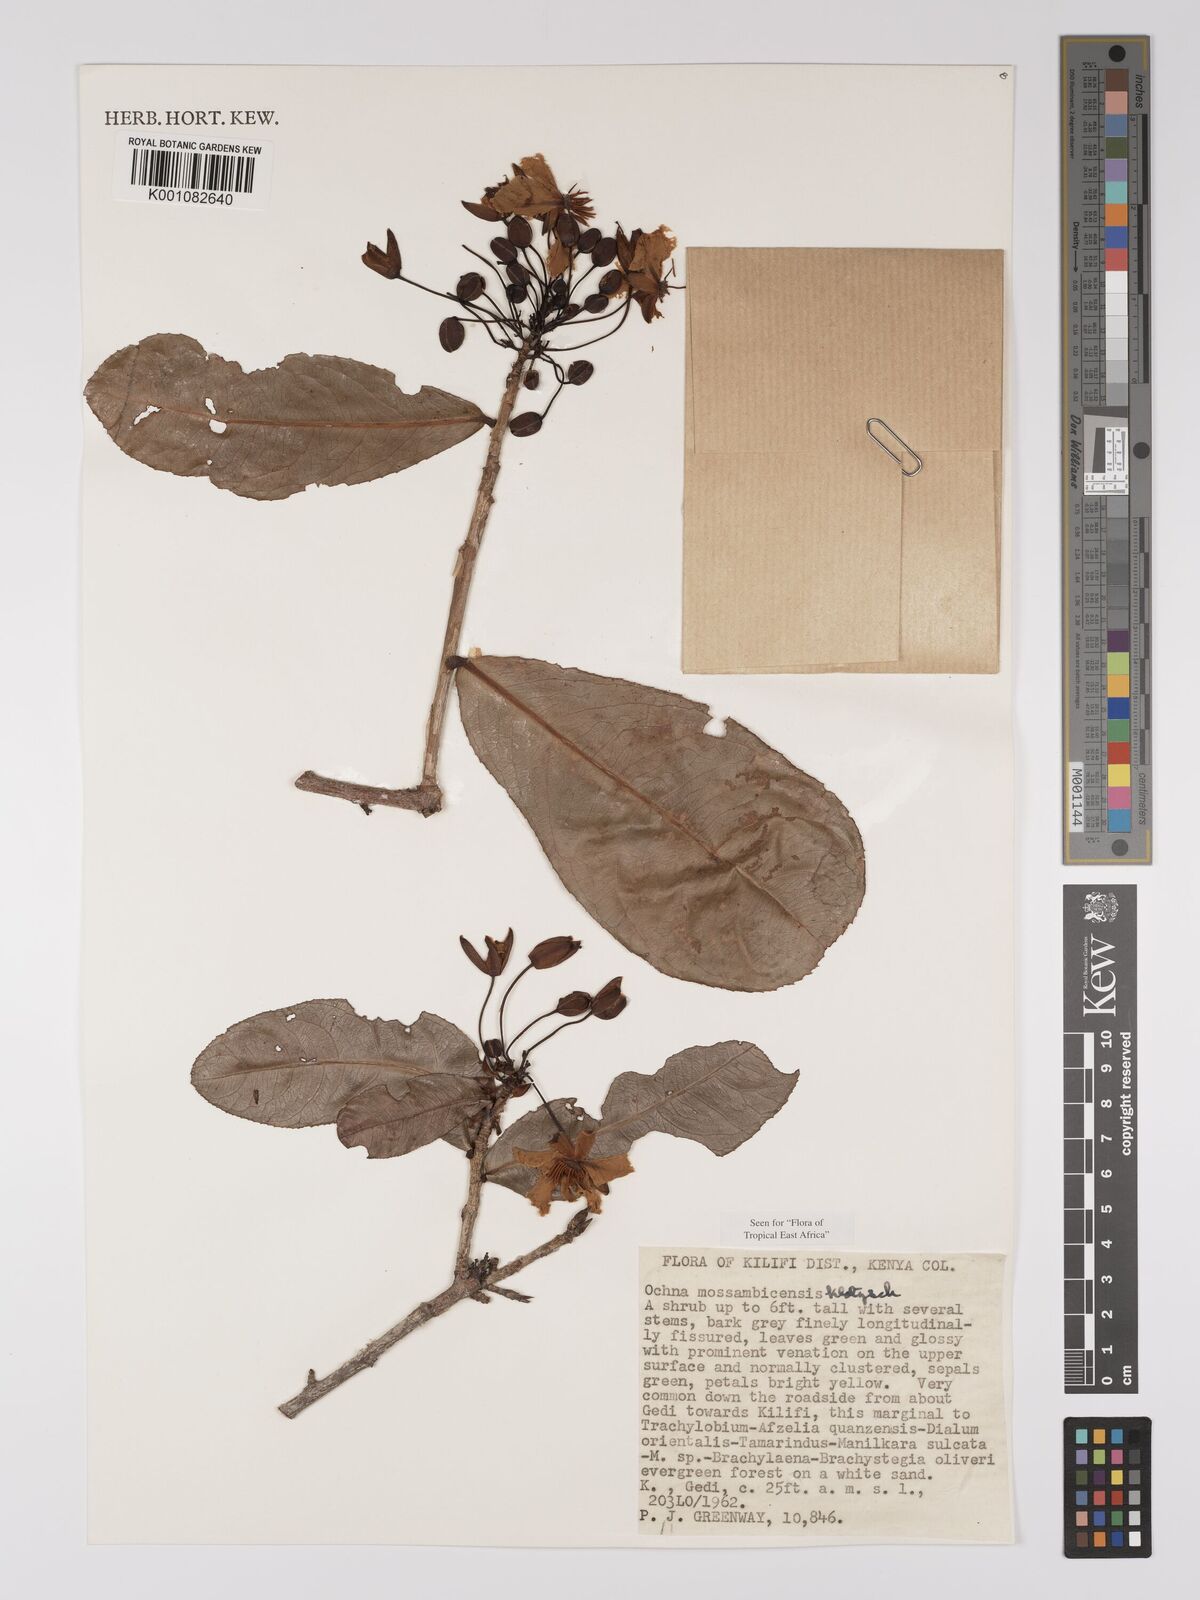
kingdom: Plantae
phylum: Tracheophyta
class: Magnoliopsida
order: Malpighiales
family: Ochnaceae
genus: Ochna
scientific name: Ochna atropurpurea
